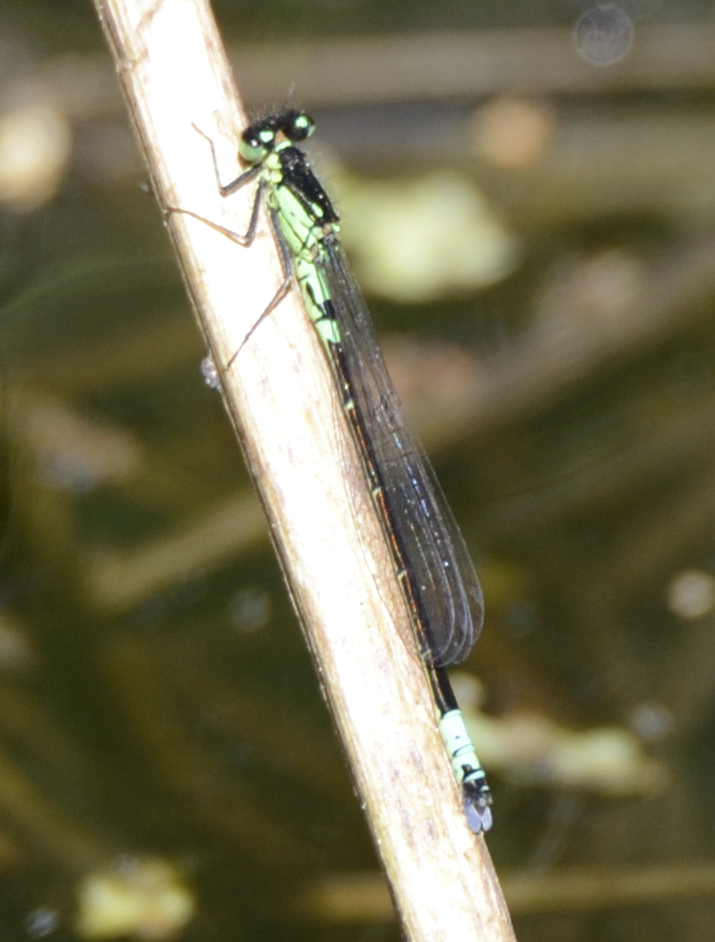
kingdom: Animalia
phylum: Arthropoda
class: Insecta
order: Odonata
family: Coenagrionidae
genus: Coenagrion
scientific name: Coenagrion armatum
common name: Dark bluet
